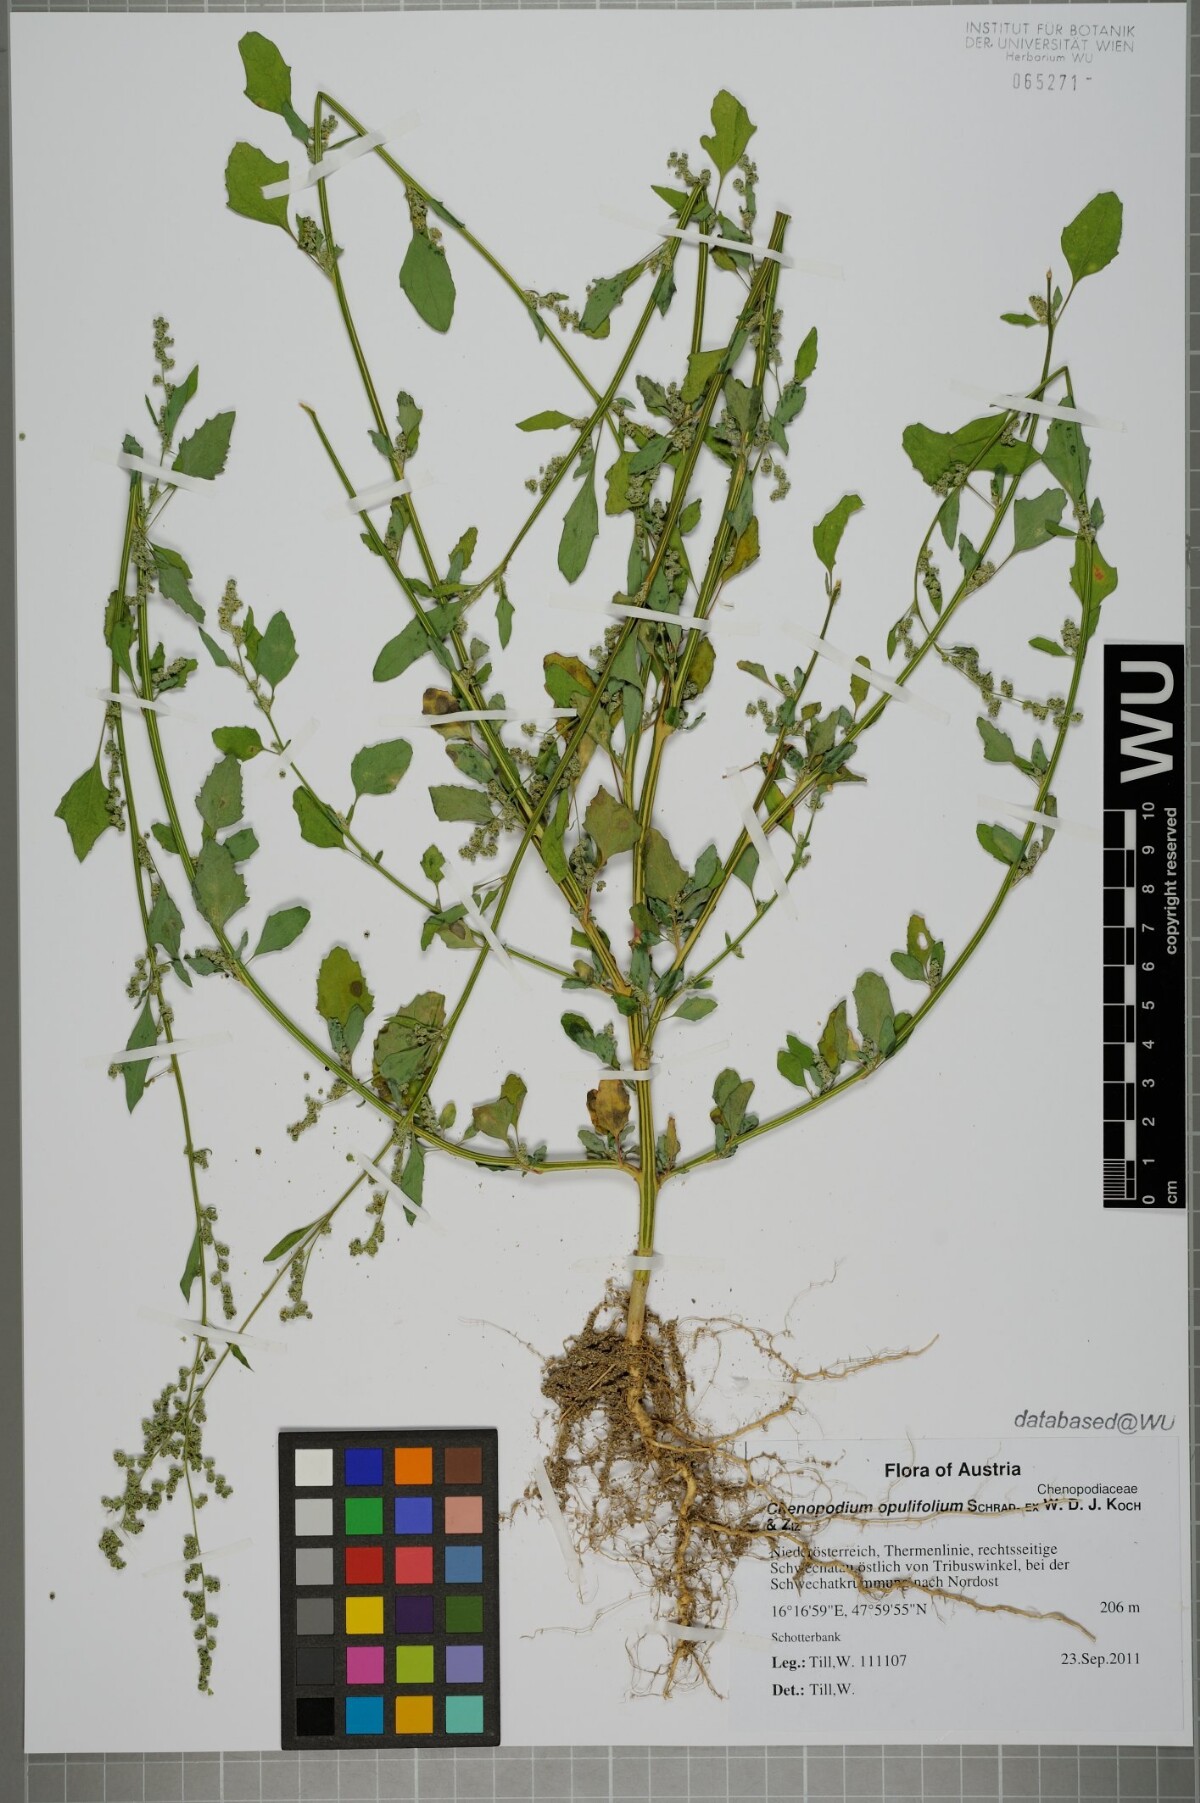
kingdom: Plantae
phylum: Tracheophyta
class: Magnoliopsida
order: Caryophyllales
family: Amaranthaceae
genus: Chenopodium
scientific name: Chenopodium opulifolium
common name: Grey goosefoot
